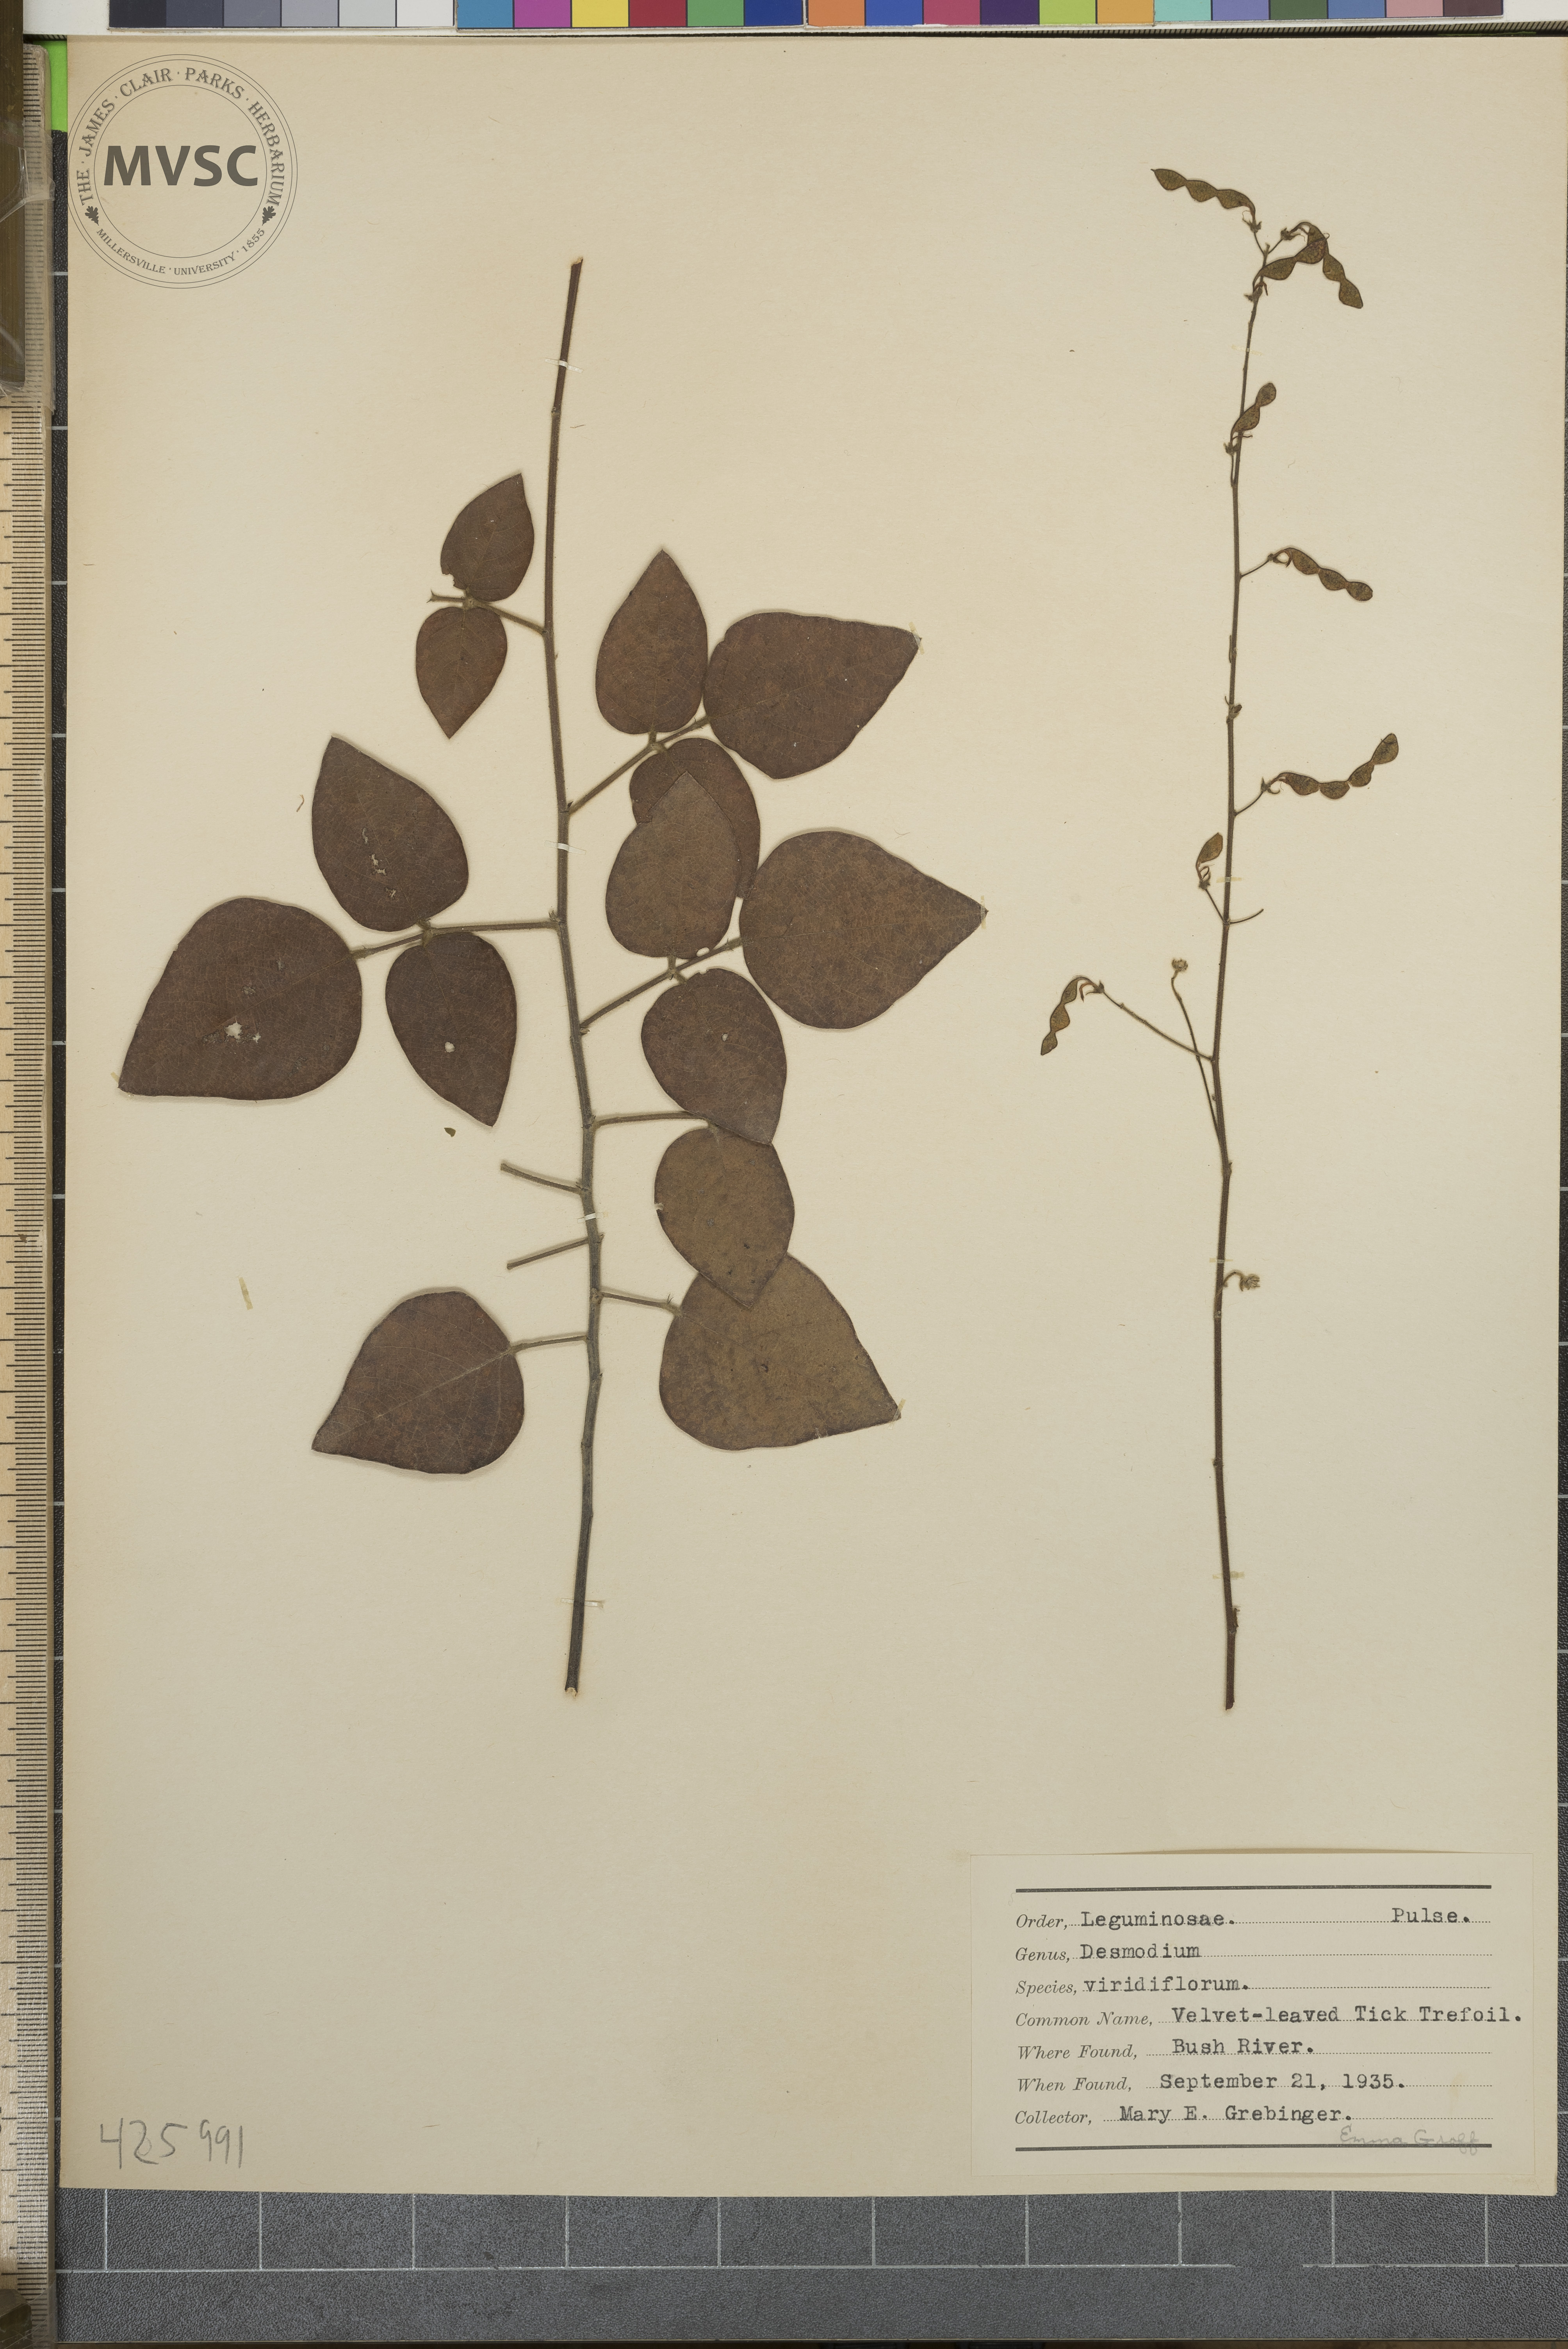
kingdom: Plantae
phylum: Tracheophyta
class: Magnoliopsida
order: Fabales
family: Fabaceae
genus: Desmodium
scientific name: Desmodium viridiflorum
